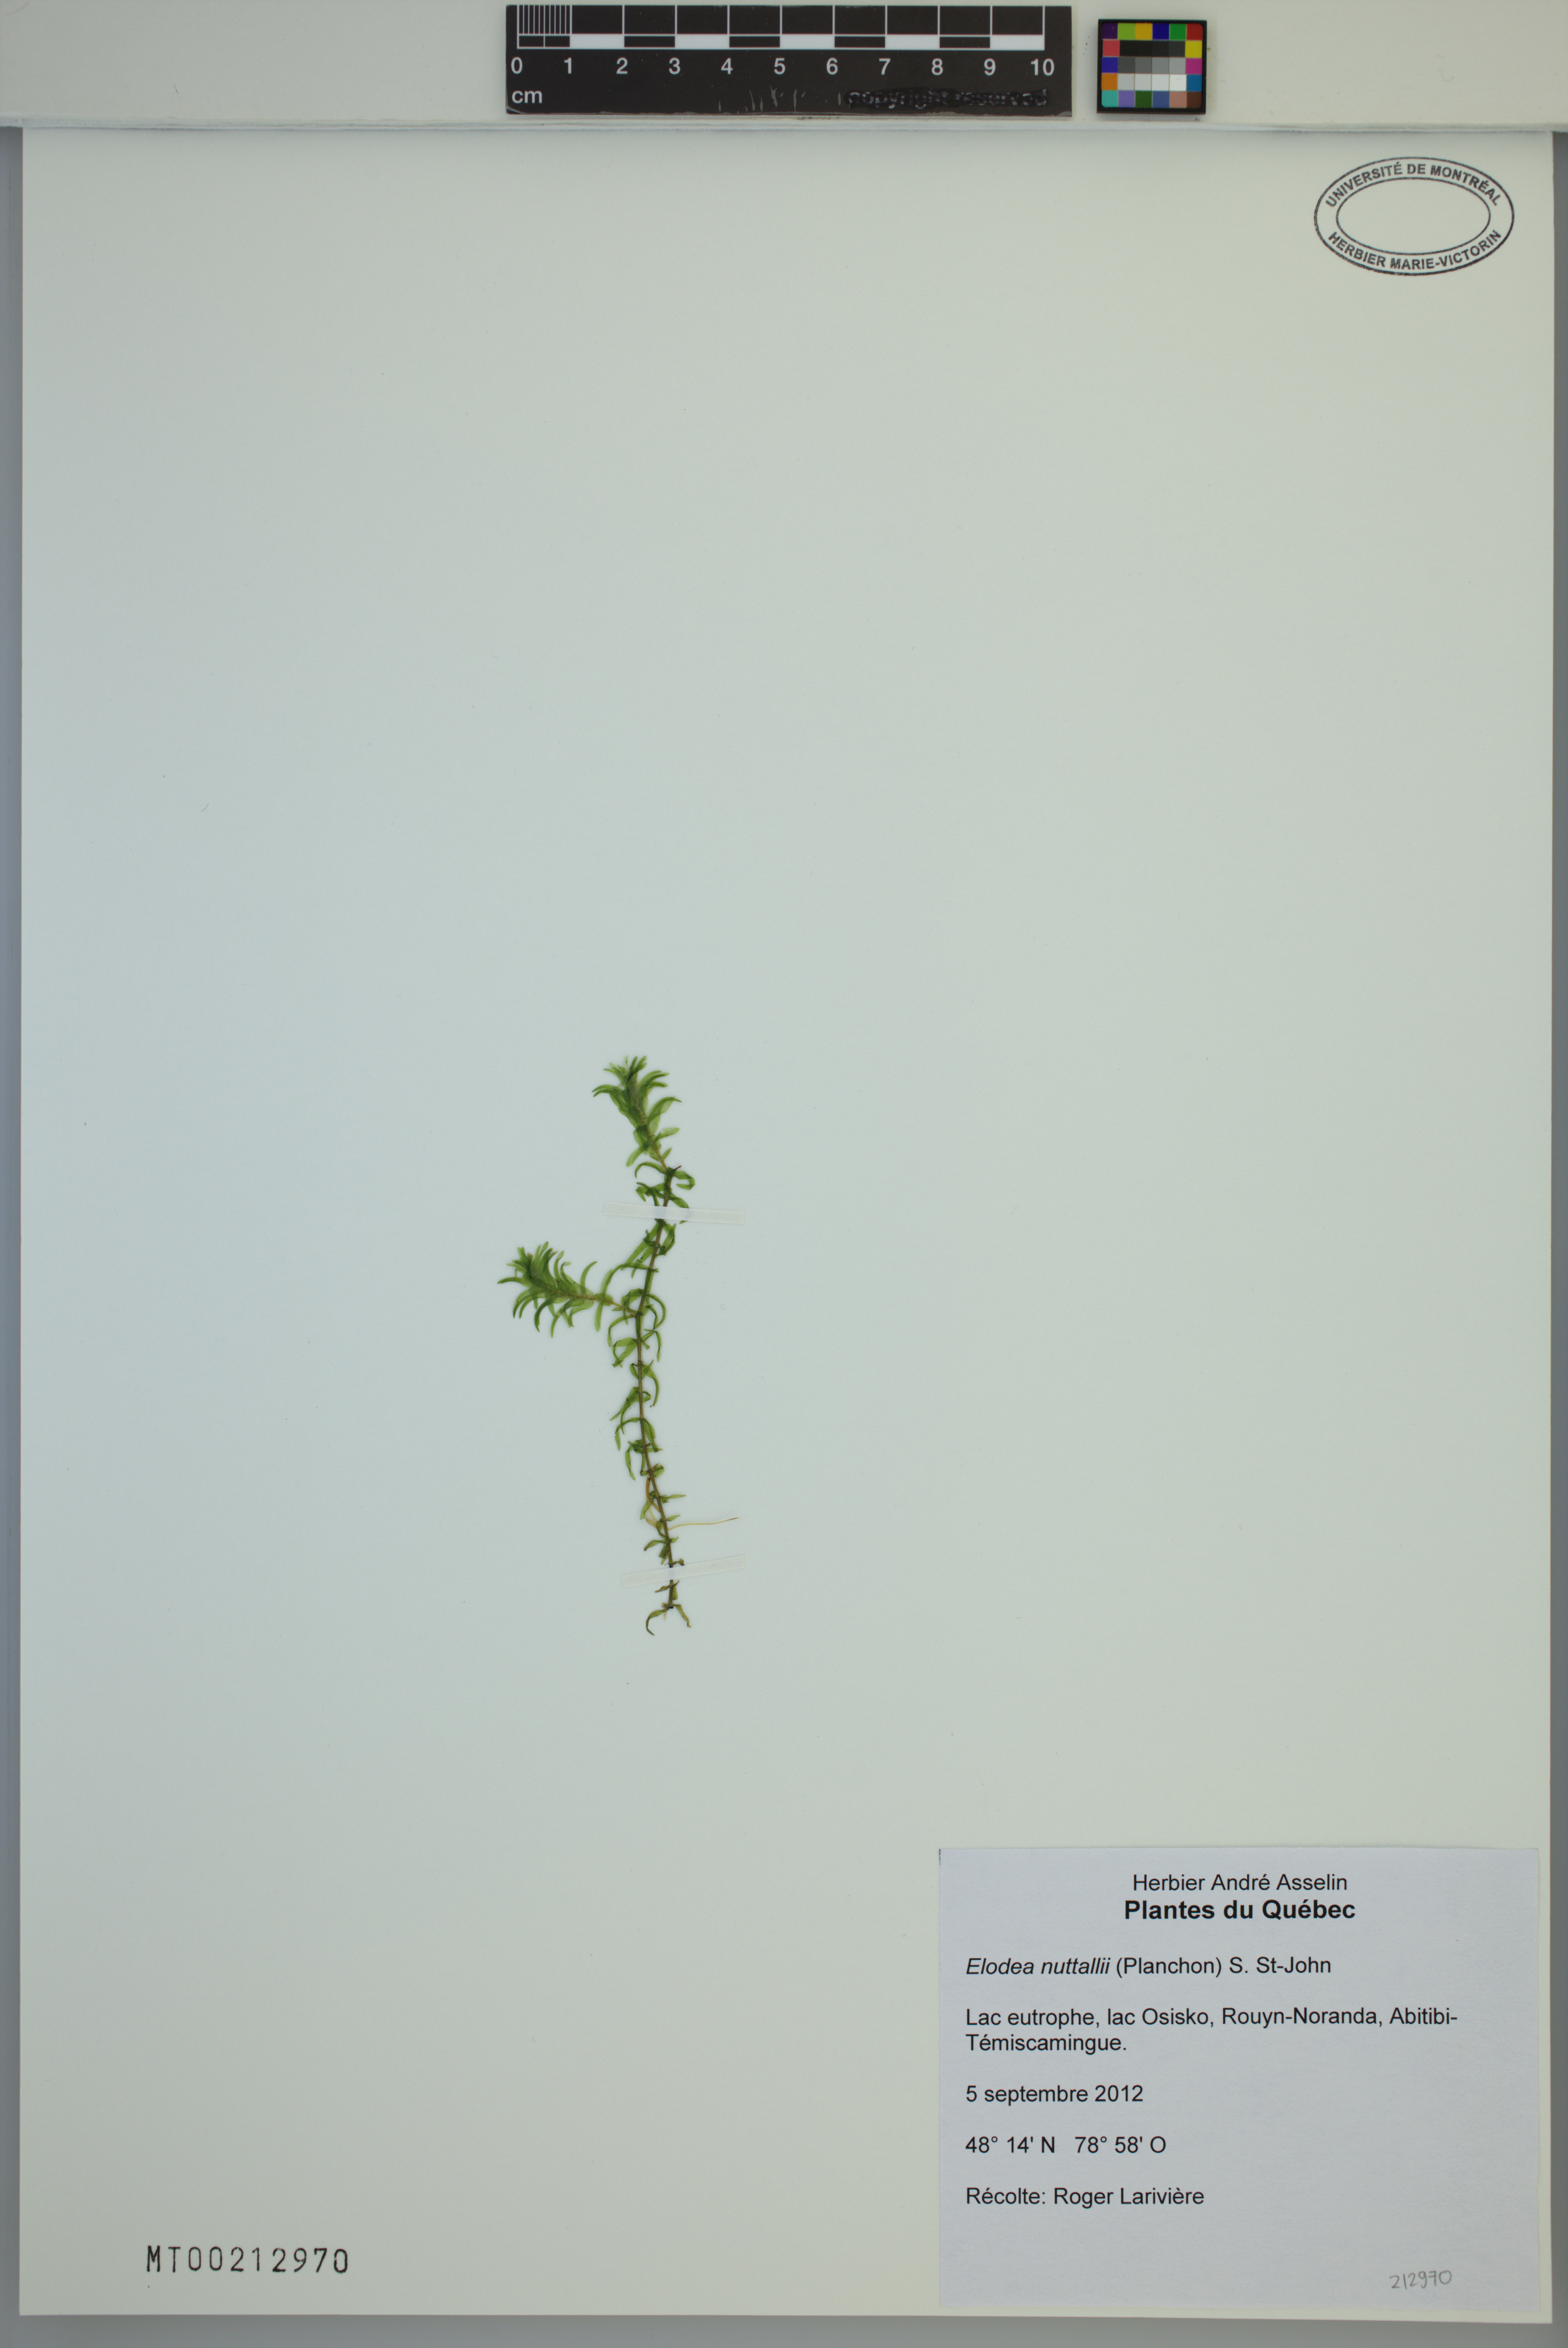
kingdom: Plantae
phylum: Tracheophyta
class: Liliopsida
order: Alismatales
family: Hydrocharitaceae
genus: Elodea
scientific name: Elodea nuttallii
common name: Nuttall's waterweed
